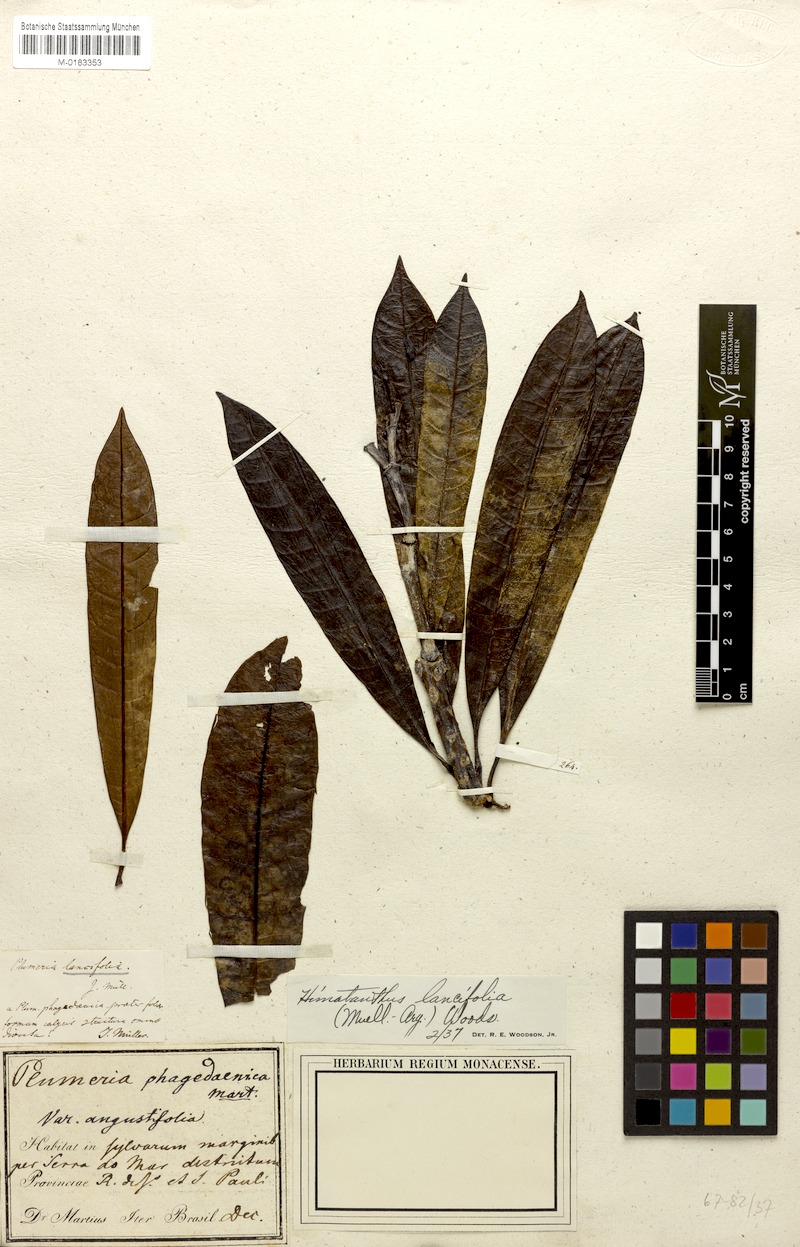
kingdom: Plantae
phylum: Tracheophyta
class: Magnoliopsida
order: Gentianales
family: Apocynaceae
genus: Himatanthus
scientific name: Himatanthus bracteatus
